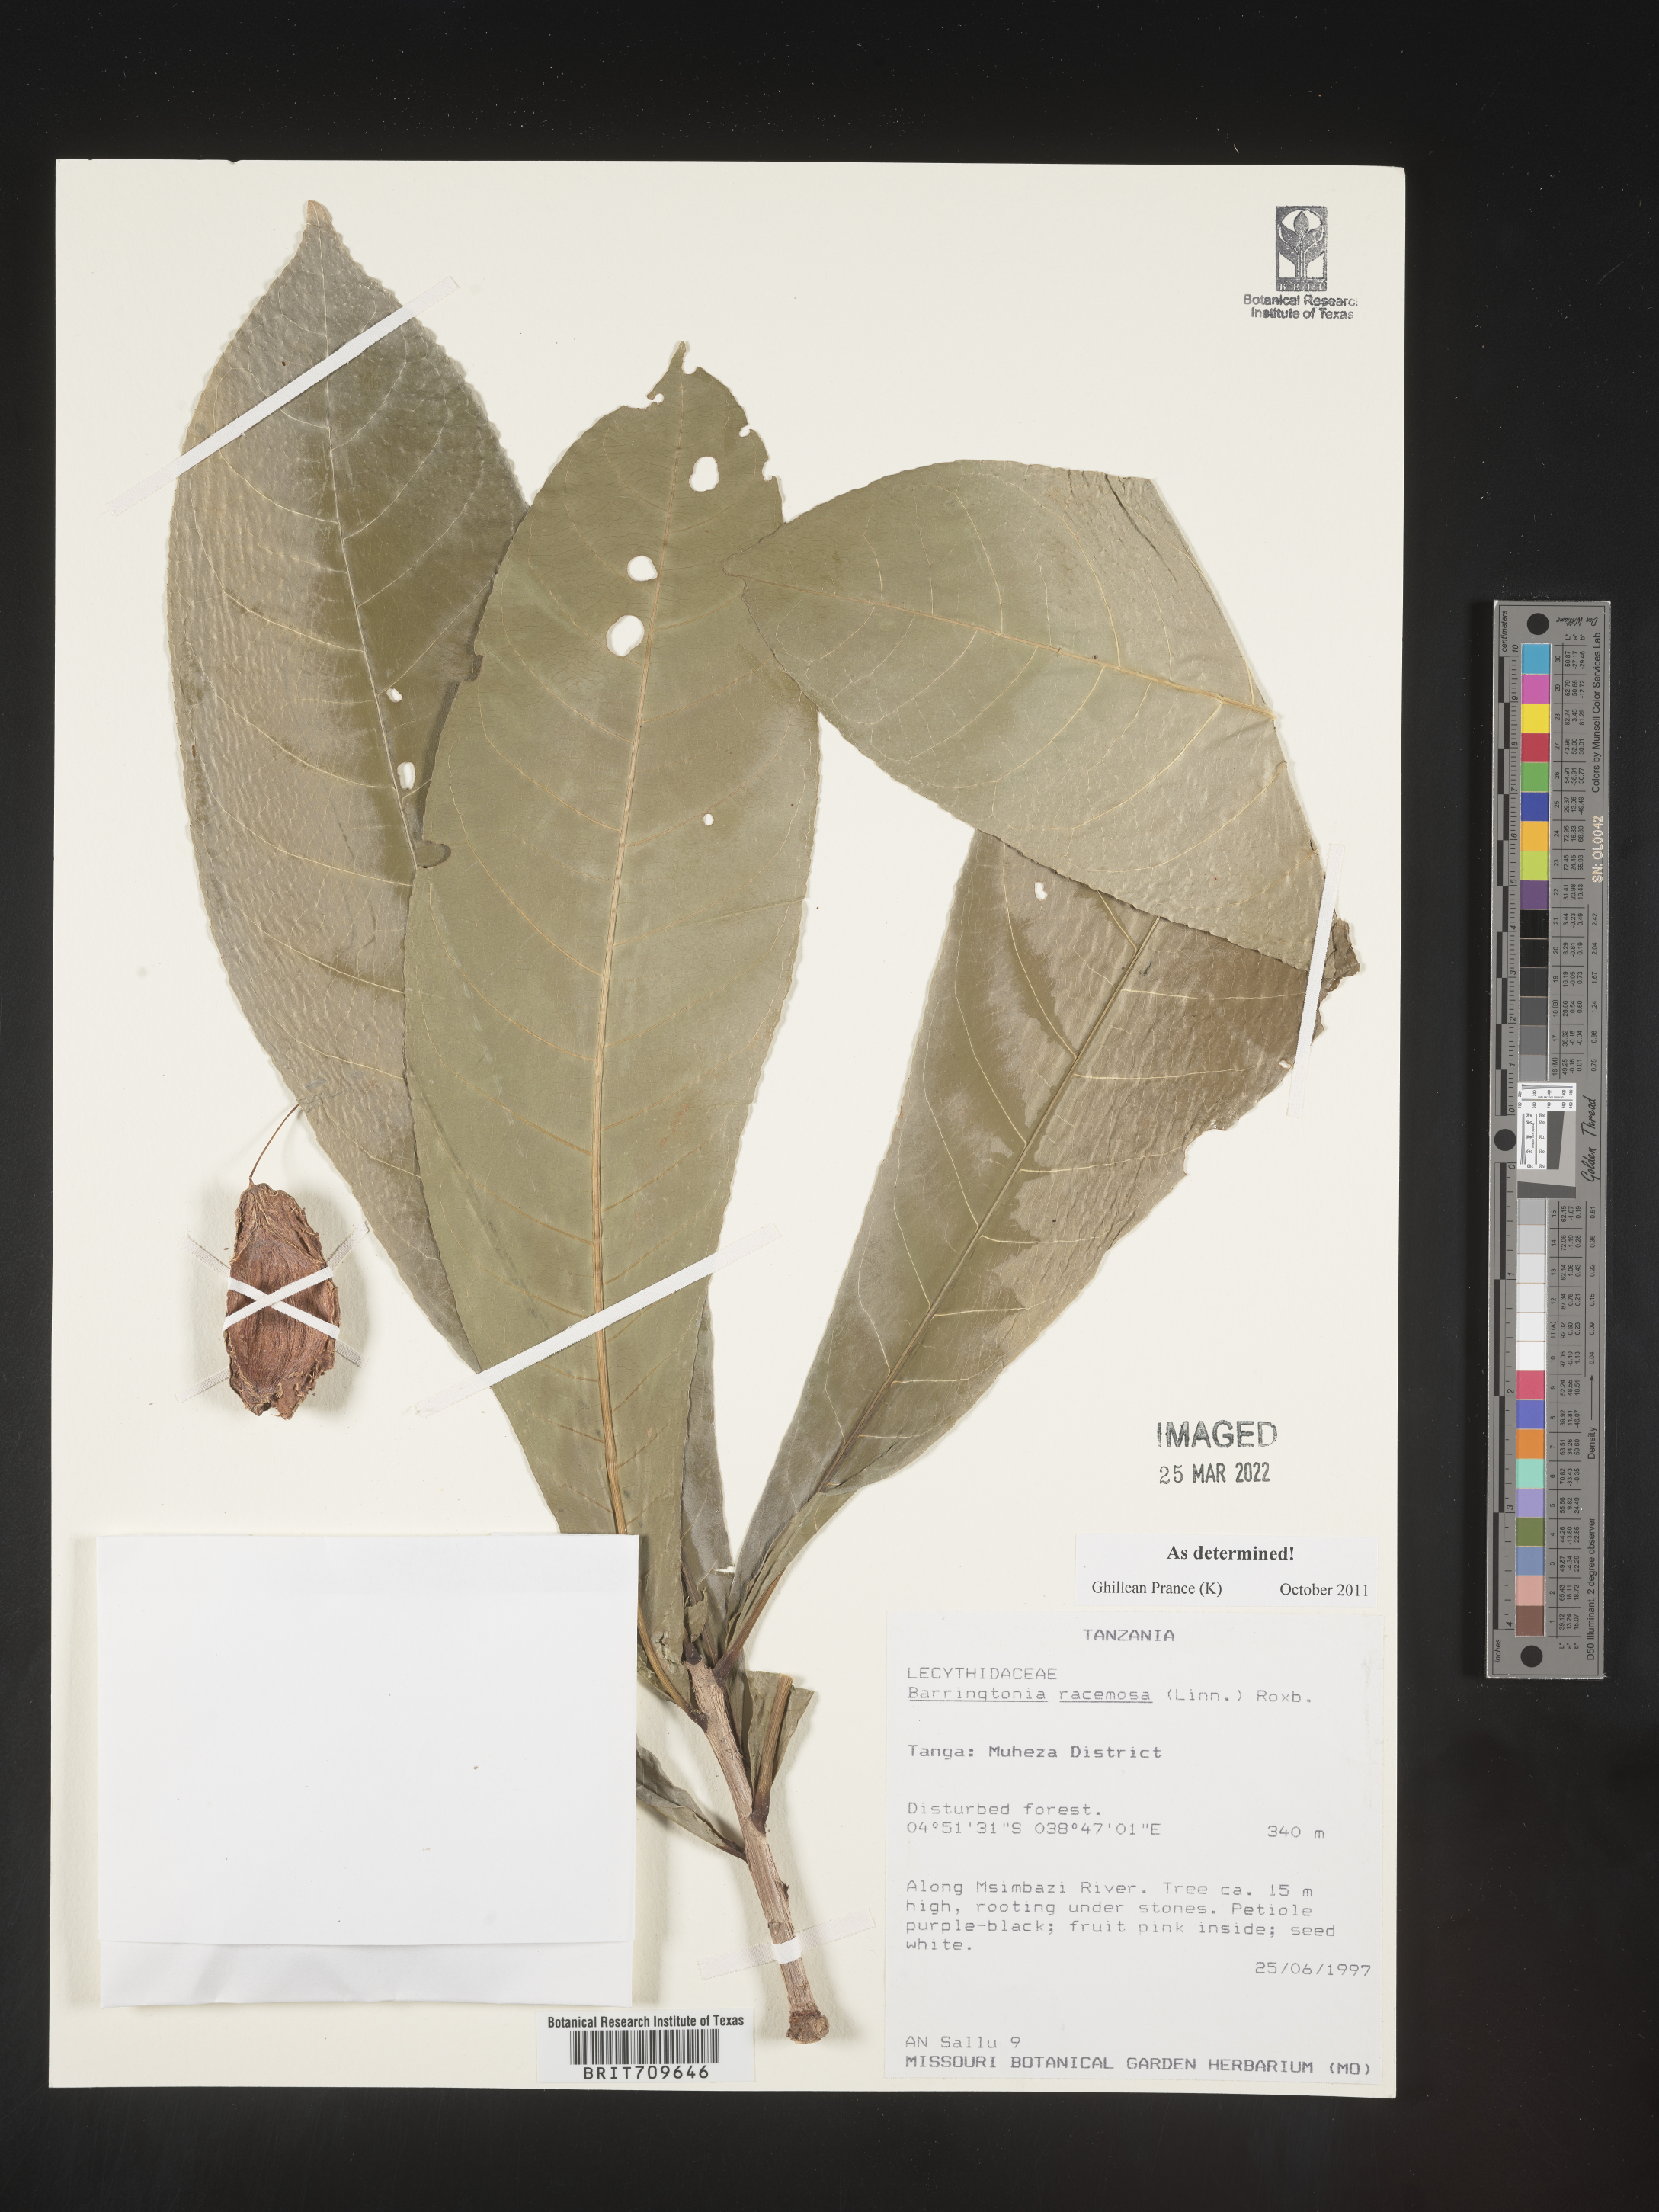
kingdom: Plantae
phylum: Tracheophyta
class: Magnoliopsida
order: Ericales
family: Lecythidaceae
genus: Barringtonia
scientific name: Barringtonia
